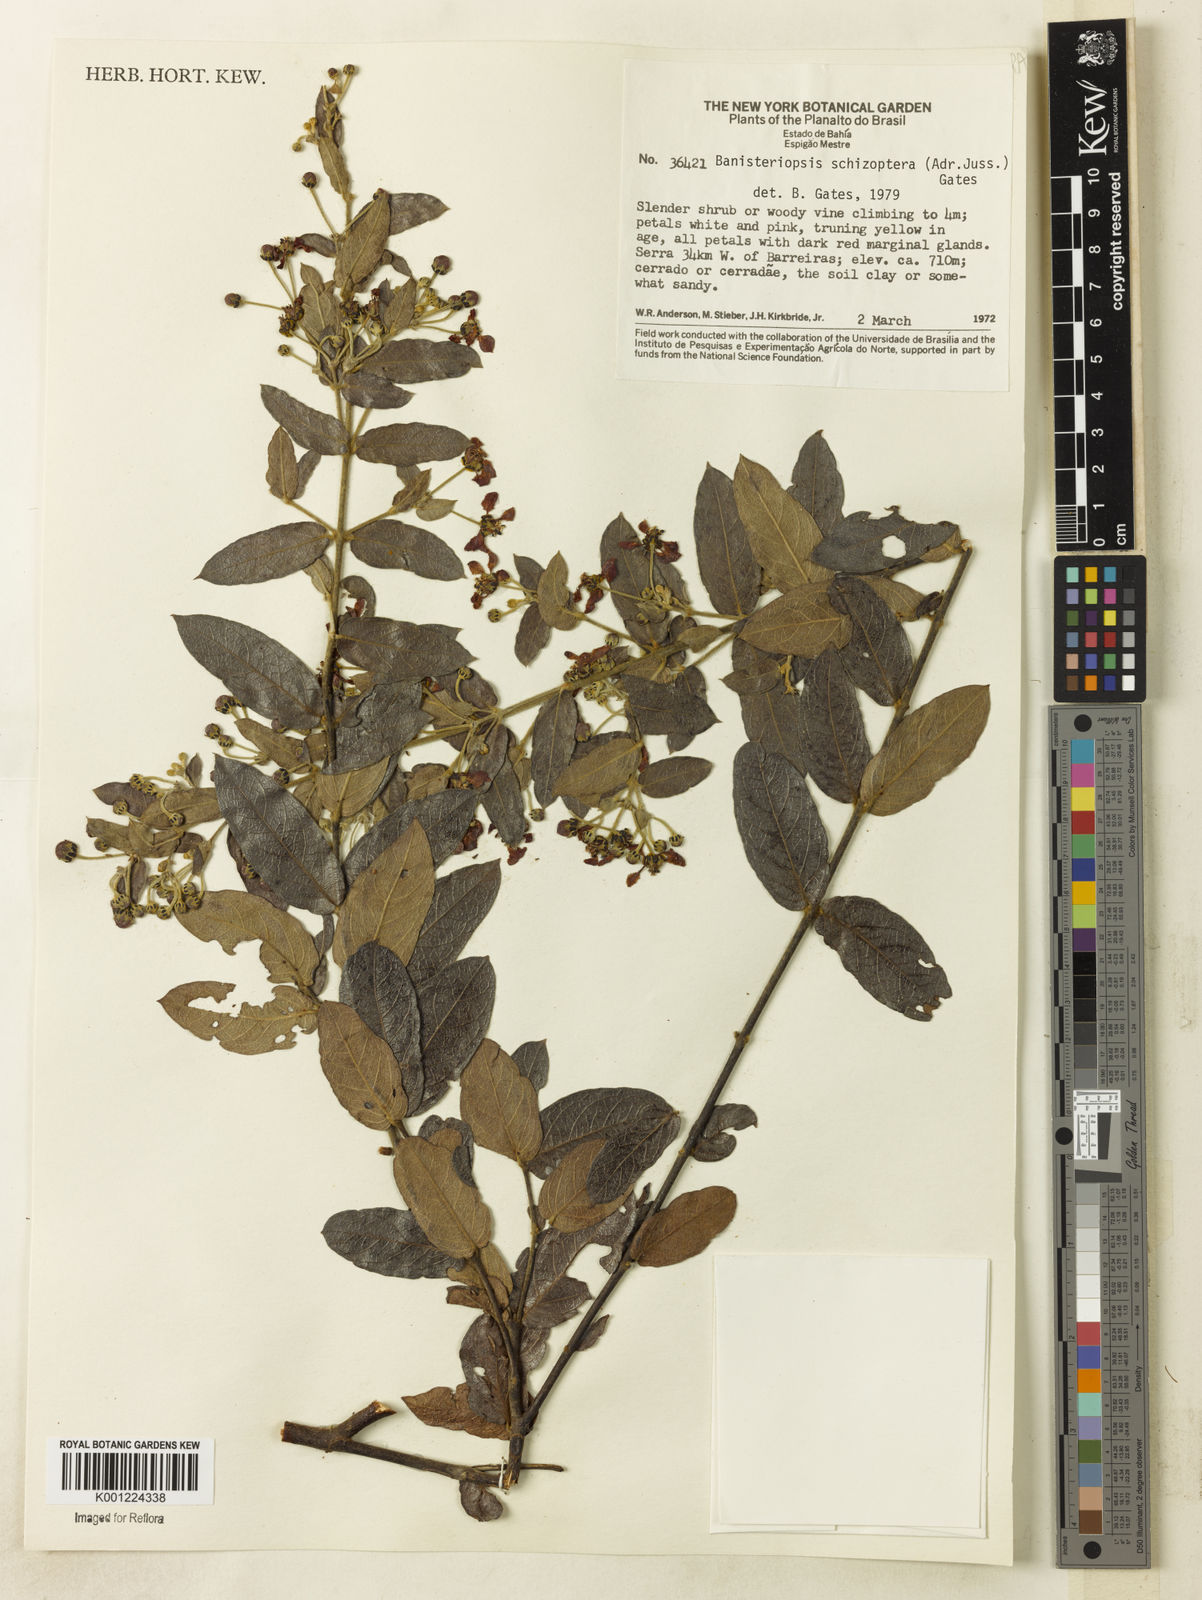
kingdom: Plantae
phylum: Tracheophyta
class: Magnoliopsida
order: Malpighiales
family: Malpighiaceae
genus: Banisteriopsis
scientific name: Banisteriopsis schizoptera
